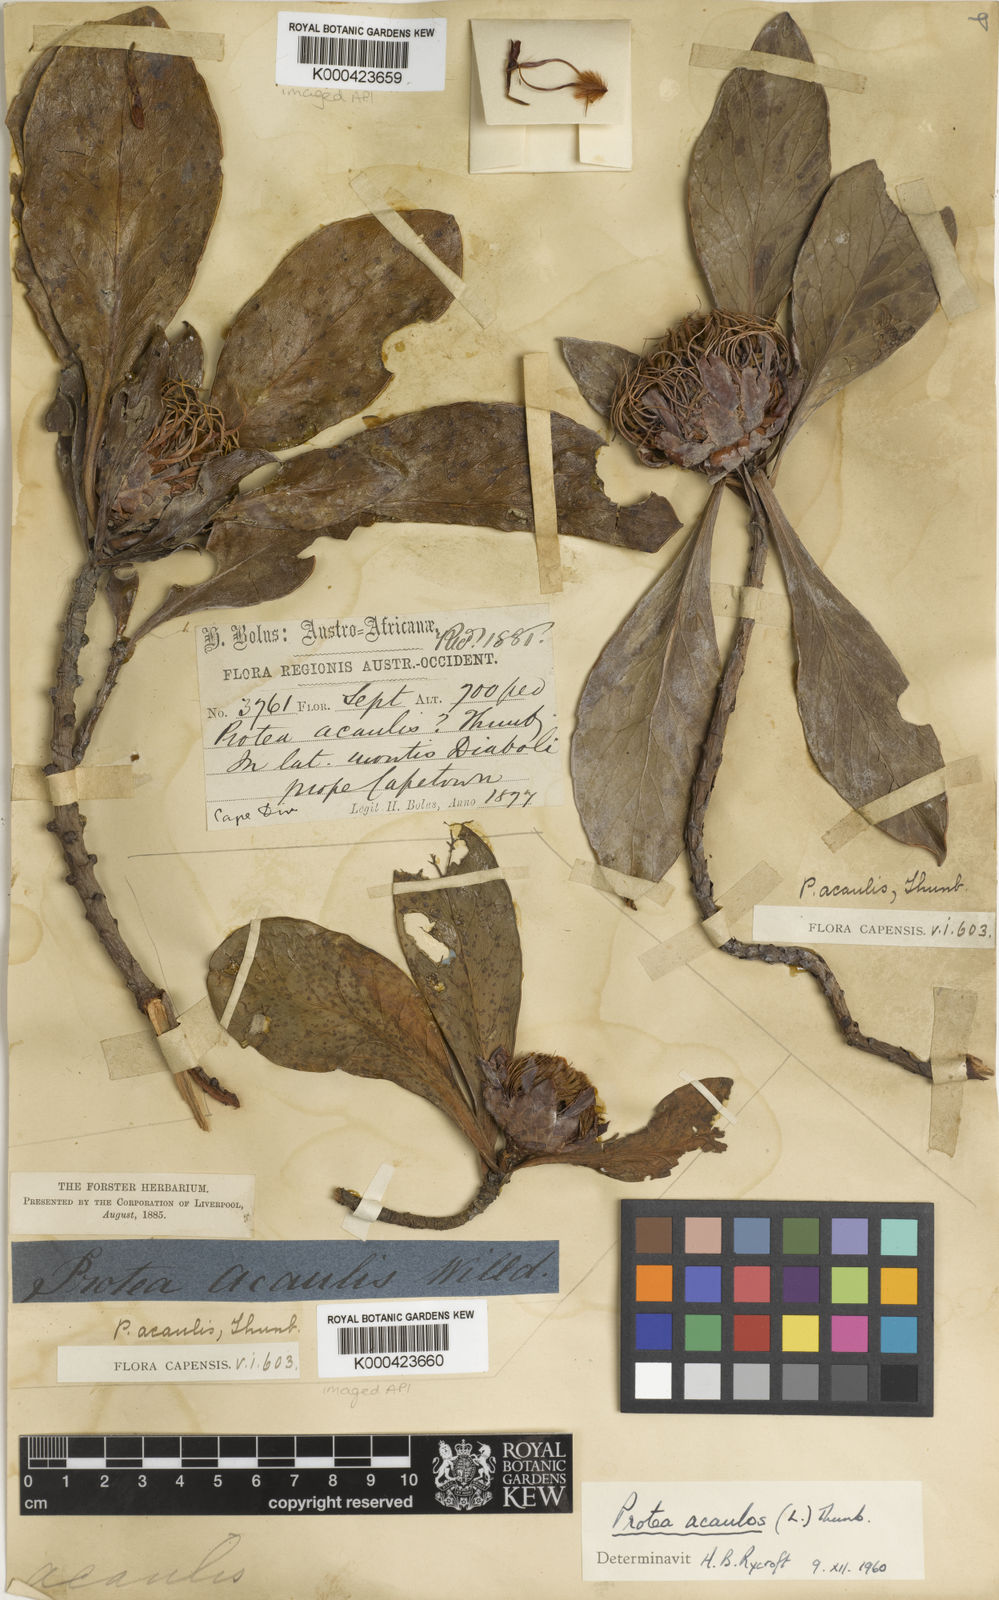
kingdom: Plantae
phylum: Tracheophyta
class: Magnoliopsida
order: Proteales
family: Proteaceae
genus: Protea
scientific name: Protea
